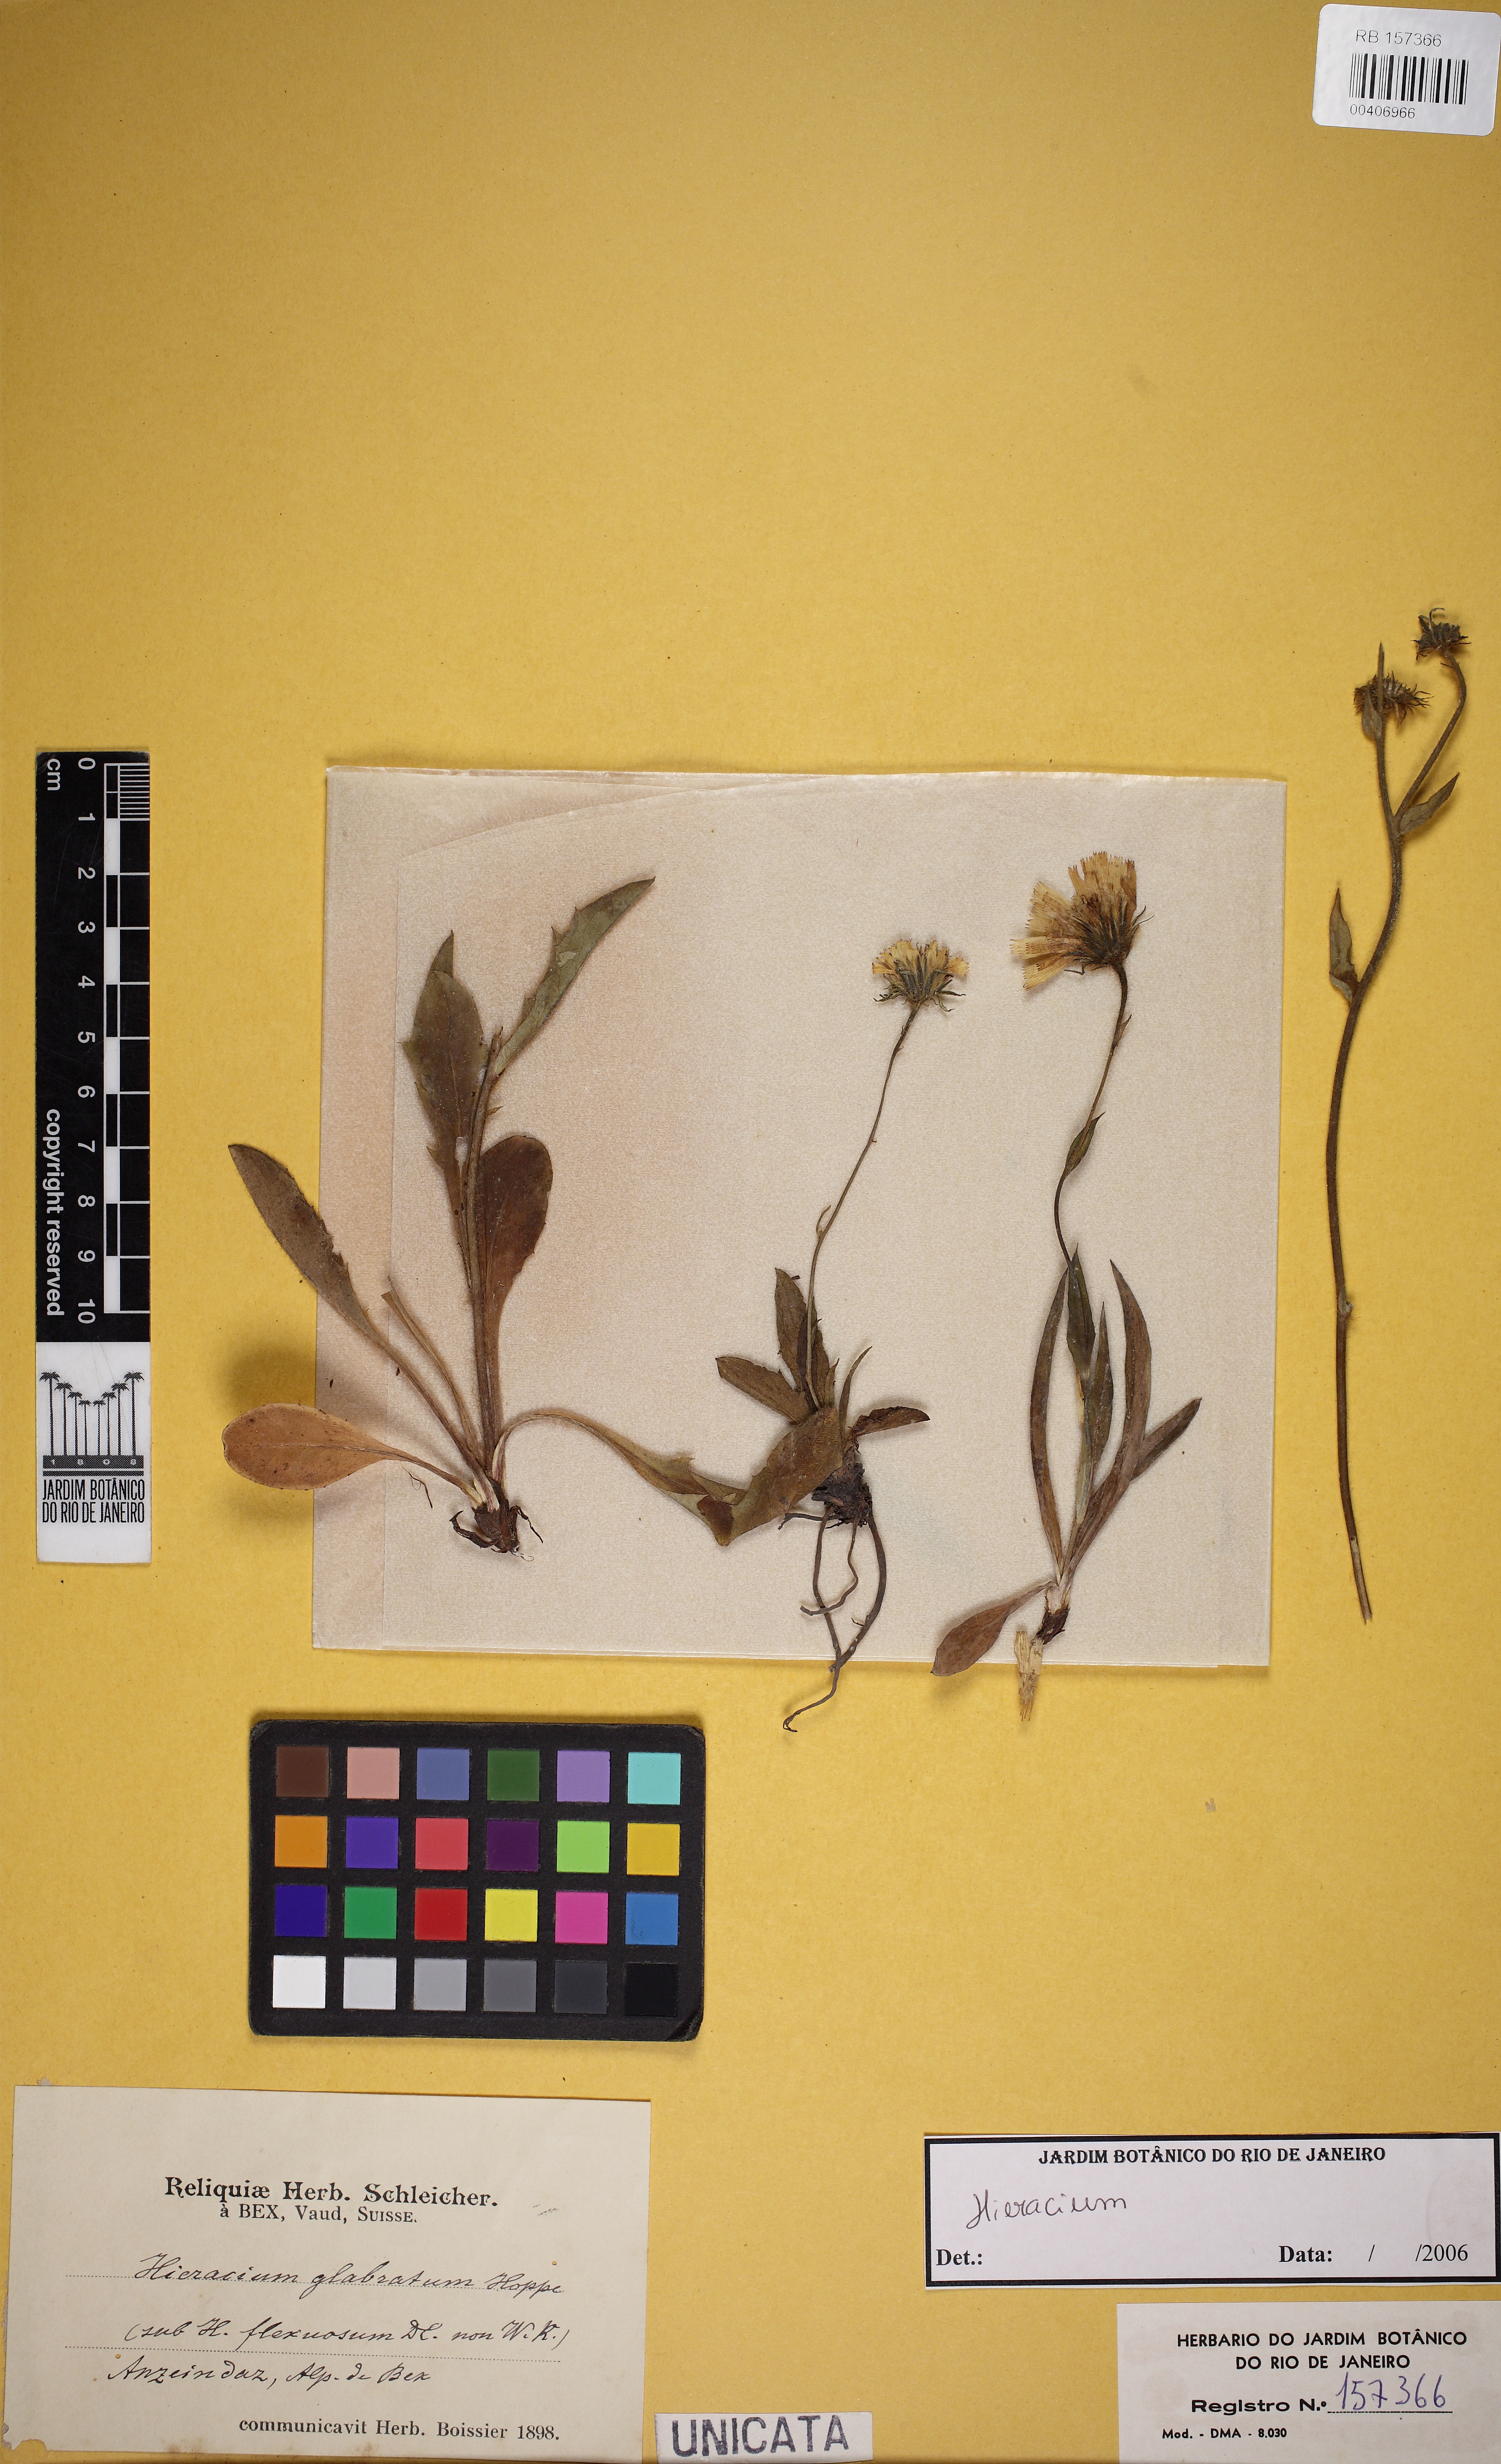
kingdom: Plantae
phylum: Tracheophyta
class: Magnoliopsida
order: Asterales
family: Asteraceae
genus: Hieracium
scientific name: Hieracium
